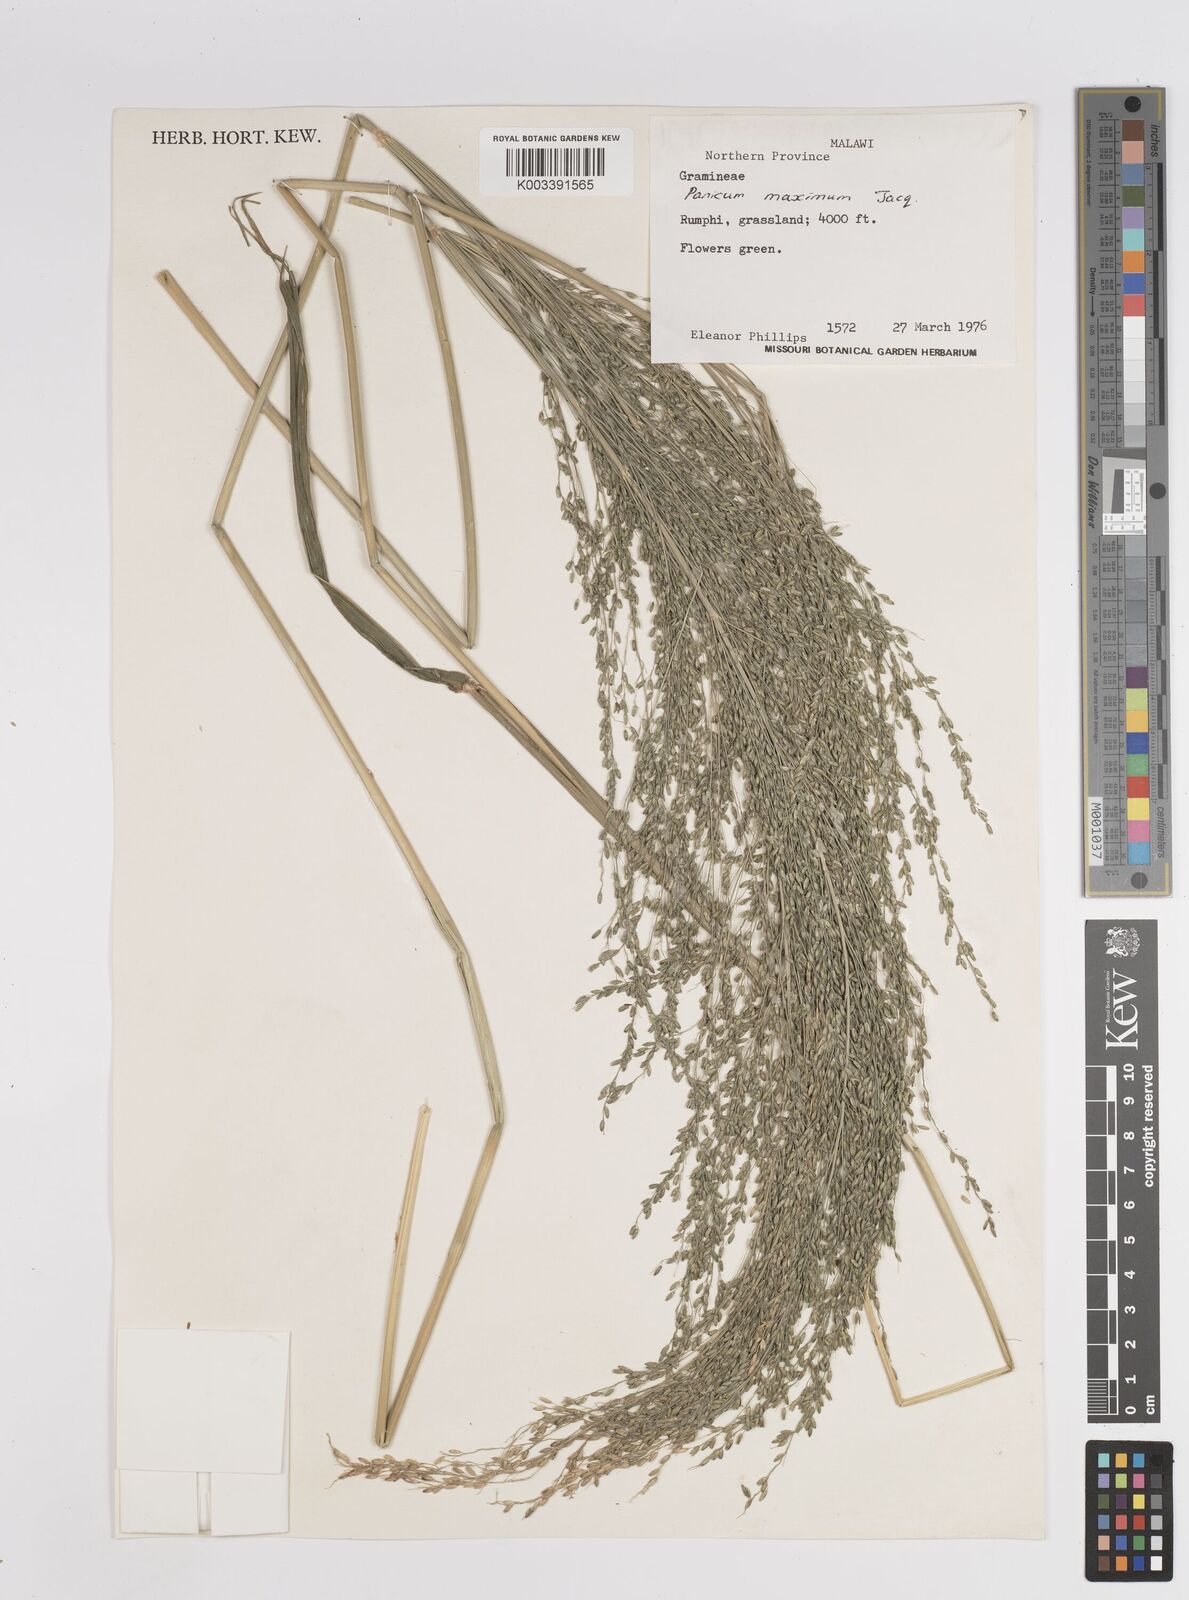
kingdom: Plantae
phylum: Tracheophyta
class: Liliopsida
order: Poales
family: Poaceae
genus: Megathyrsus
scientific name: Megathyrsus maximus
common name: Guineagrass
